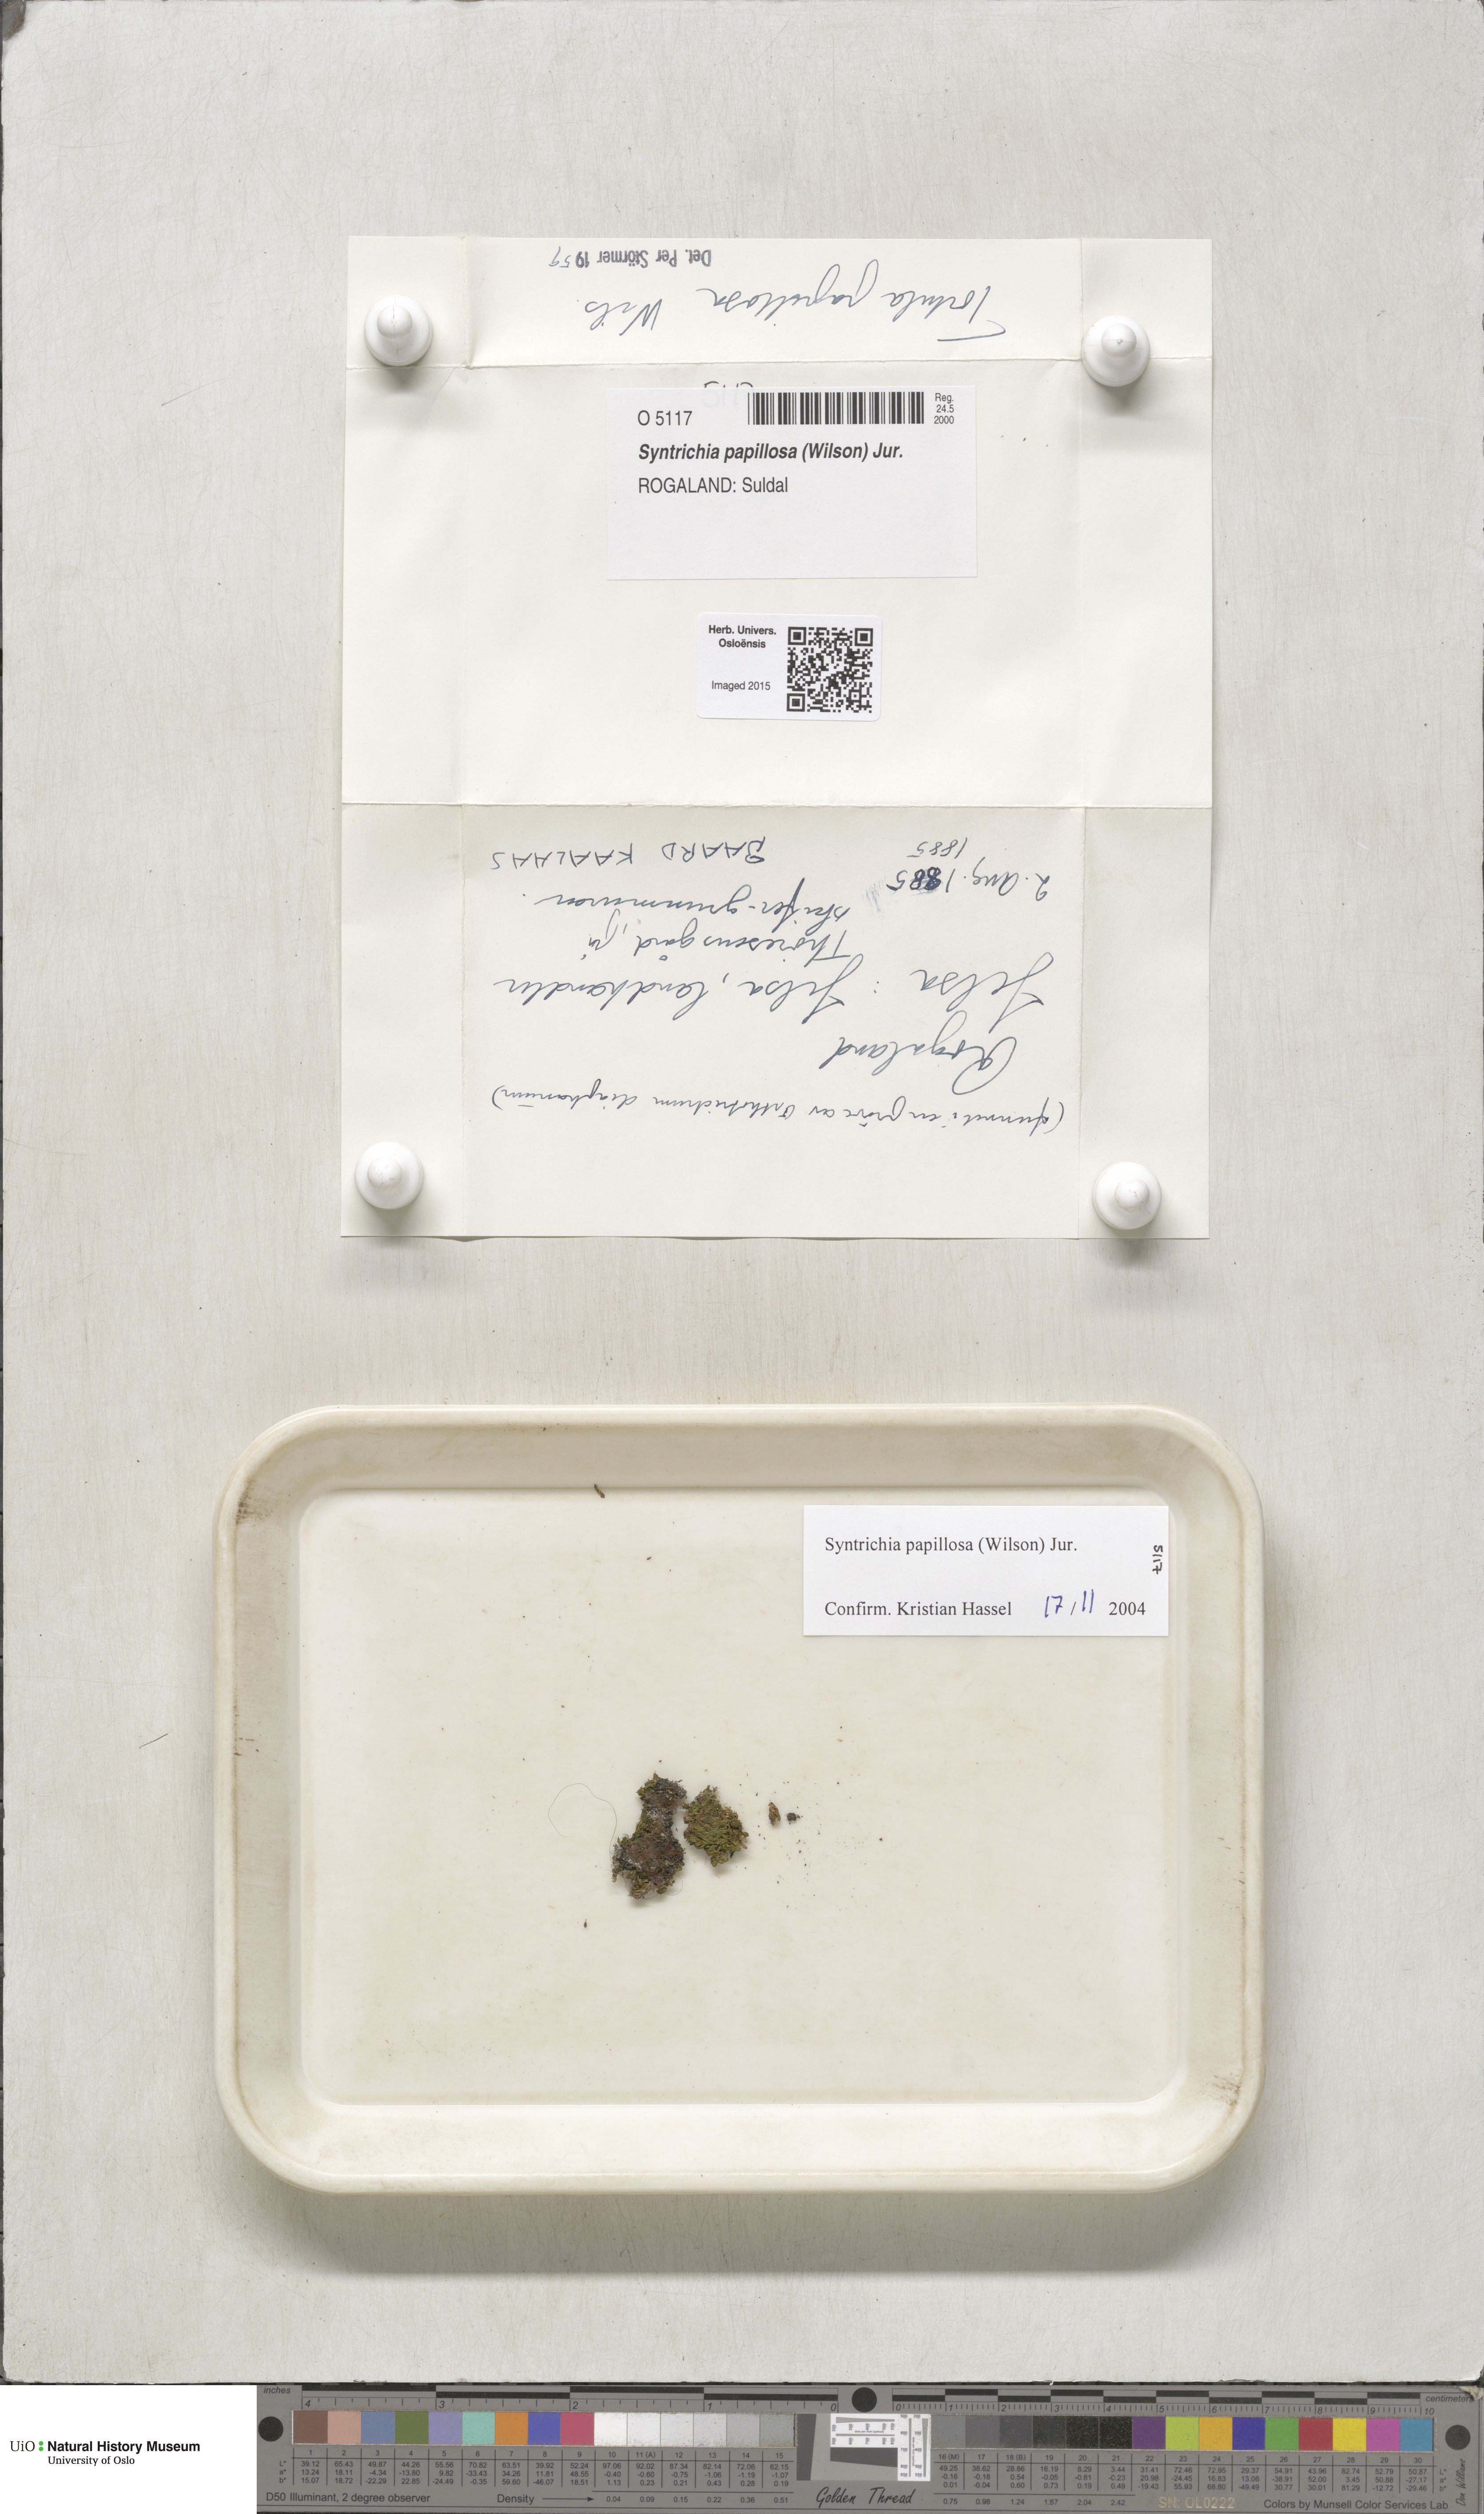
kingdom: Plantae
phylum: Bryophyta
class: Bryopsida
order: Pottiales
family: Pottiaceae
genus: Syntrichia
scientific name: Syntrichia papillosa
